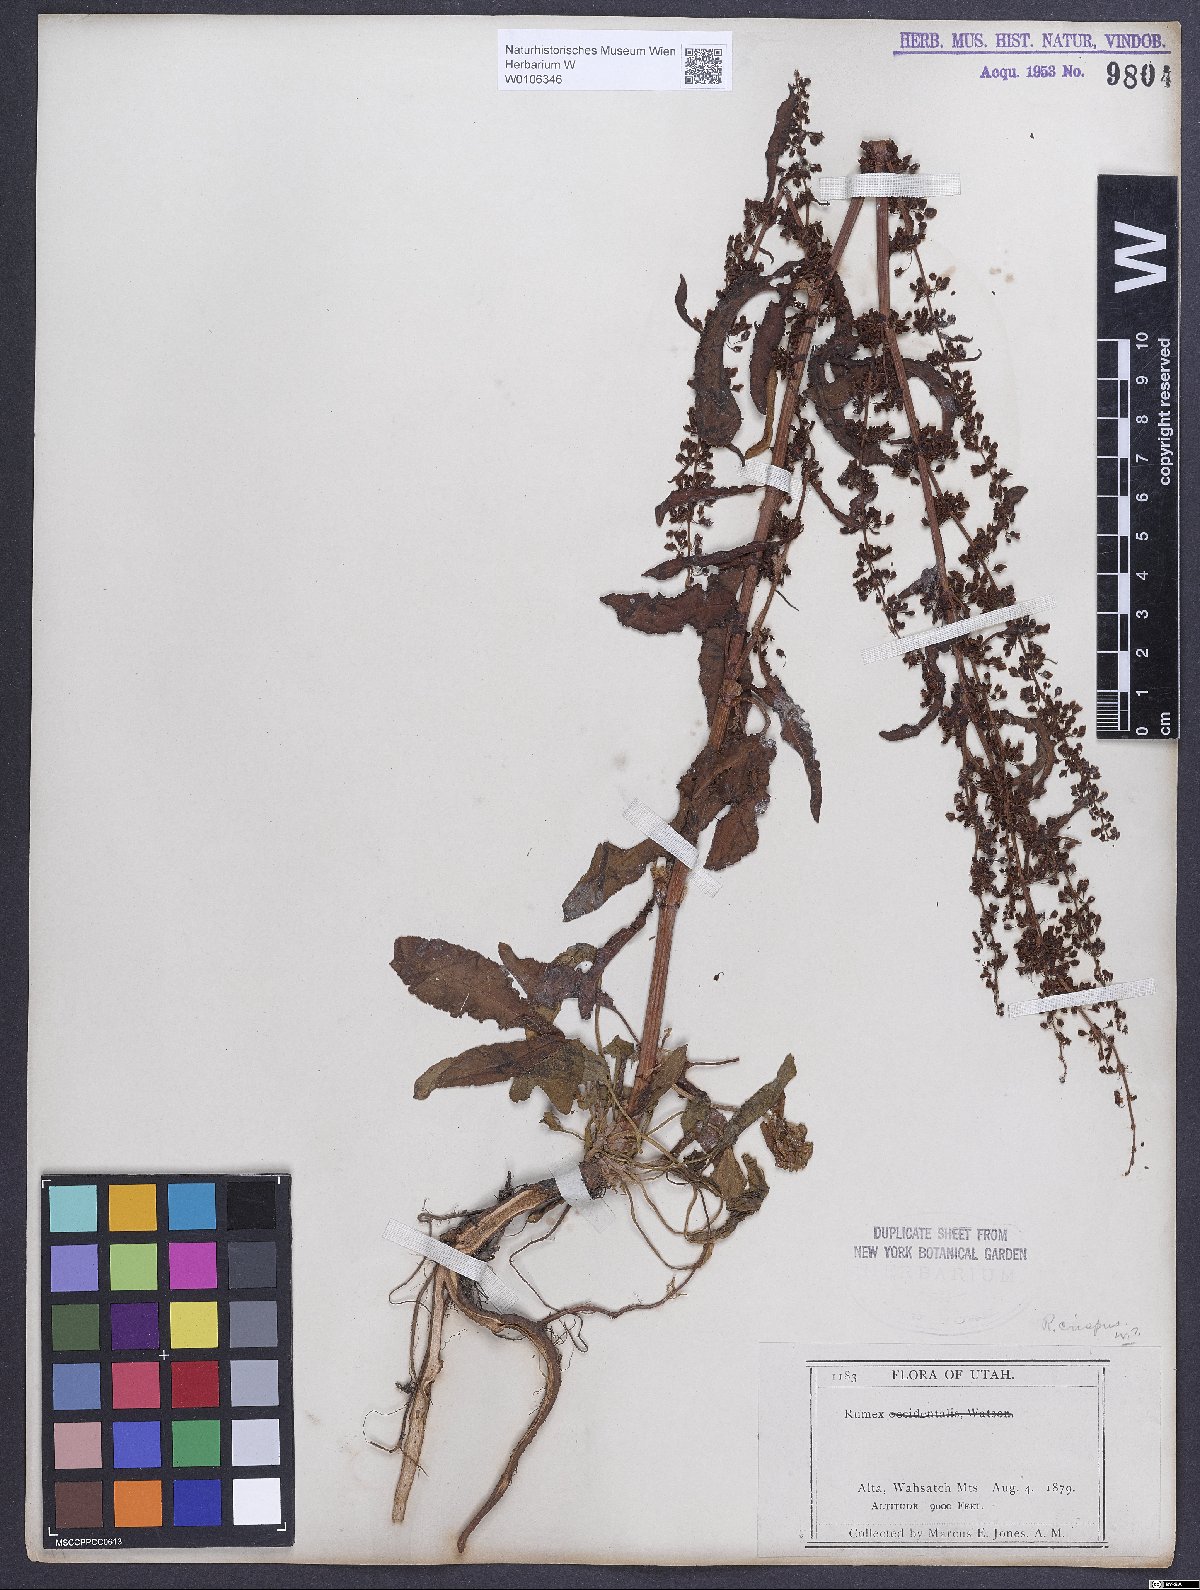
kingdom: Plantae
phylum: Tracheophyta
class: Magnoliopsida
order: Caryophyllales
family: Polygonaceae
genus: Rumex
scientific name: Rumex crispus
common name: Curled dock
